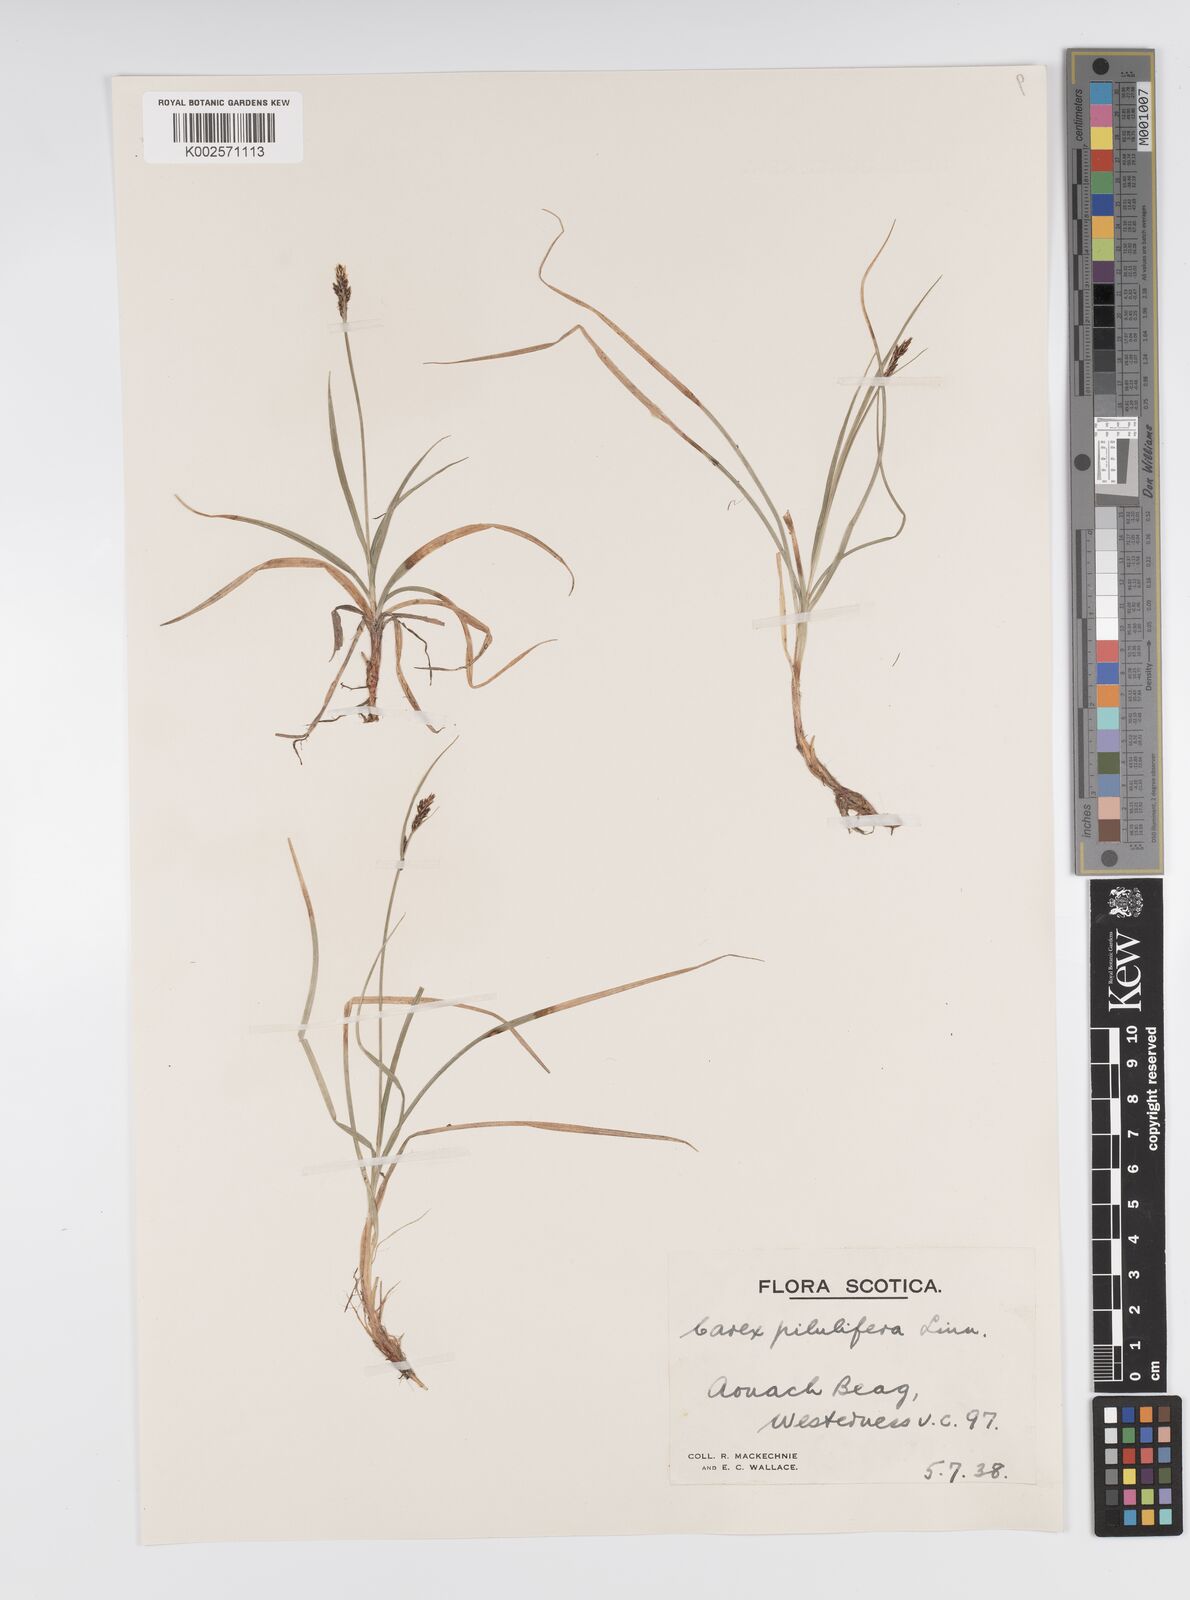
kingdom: Plantae
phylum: Tracheophyta
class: Liliopsida
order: Poales
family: Cyperaceae
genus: Carex
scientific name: Carex pilulifera
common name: Pill sedge
